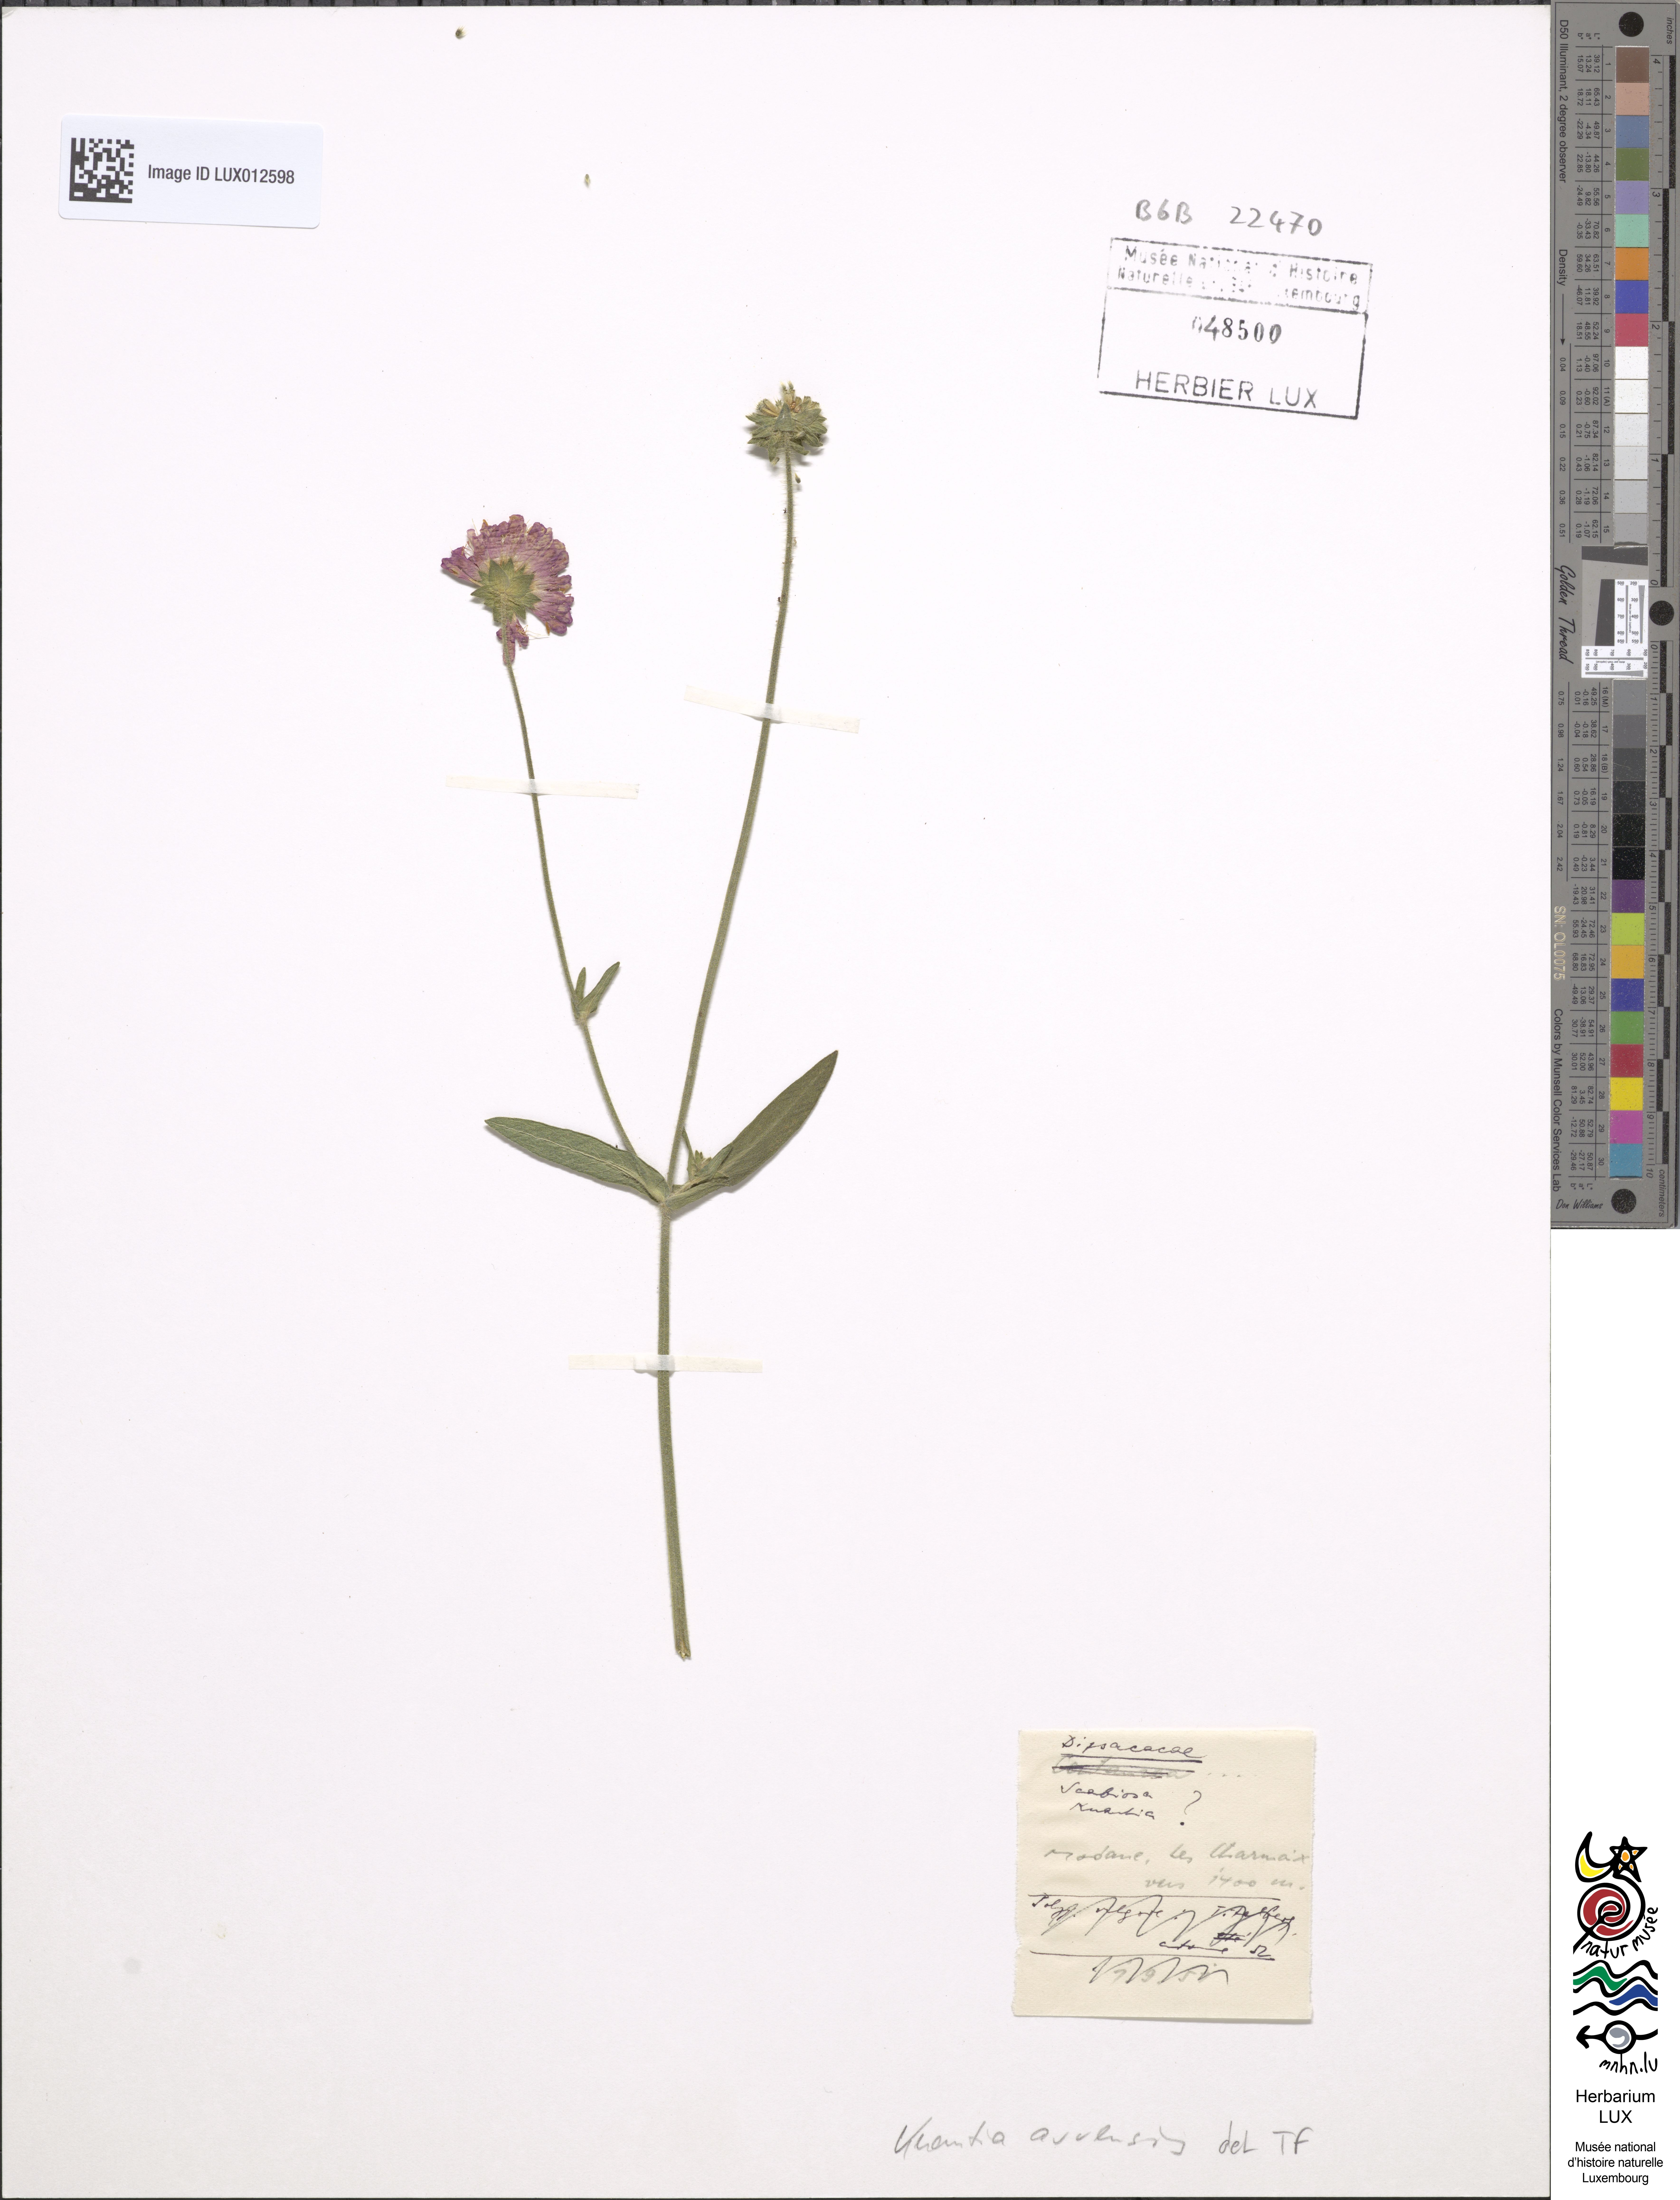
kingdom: Plantae
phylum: Tracheophyta
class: Magnoliopsida
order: Dipsacales
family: Caprifoliaceae
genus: Knautia
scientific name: Knautia arvensis
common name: Field scabiosa
